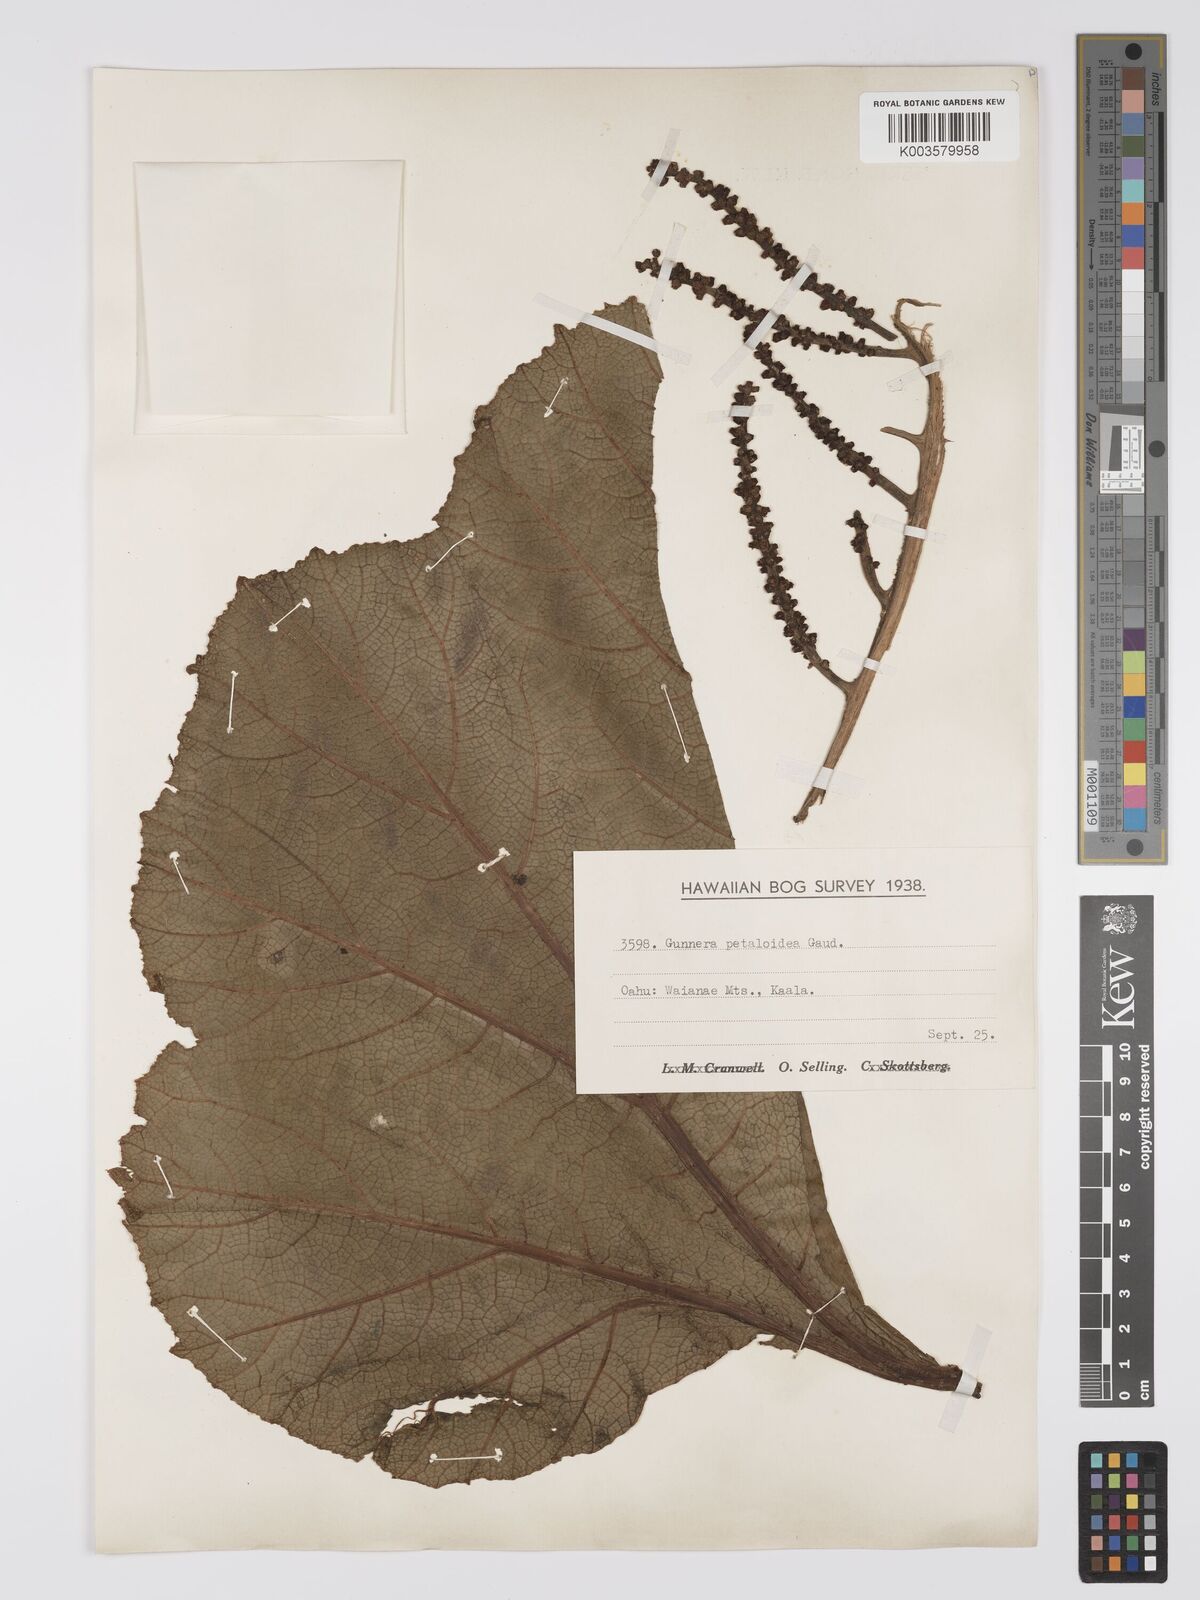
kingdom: Plantae
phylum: Tracheophyta
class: Magnoliopsida
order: Gunnerales
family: Gunneraceae
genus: Gunnera
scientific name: Gunnera petaloidea
